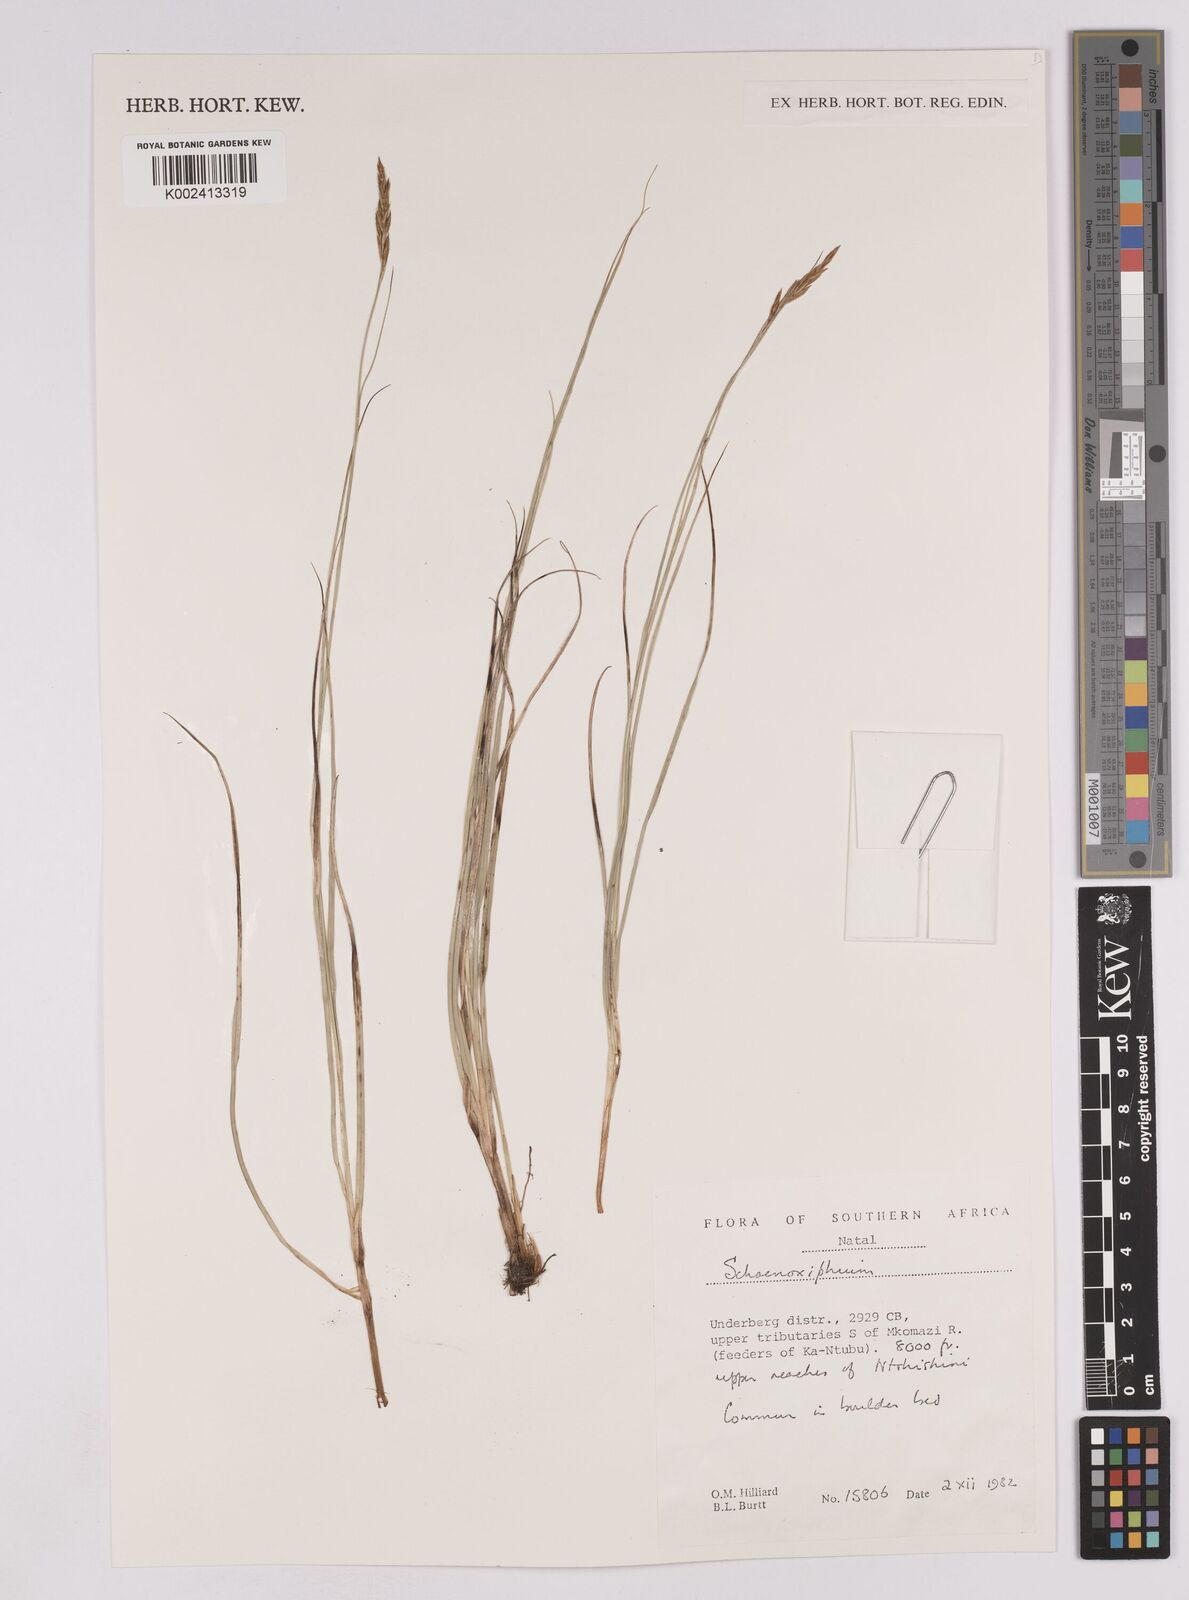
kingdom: Plantae
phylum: Tracheophyta
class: Liliopsida
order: Poales
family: Cyperaceae
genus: Carex
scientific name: Carex
